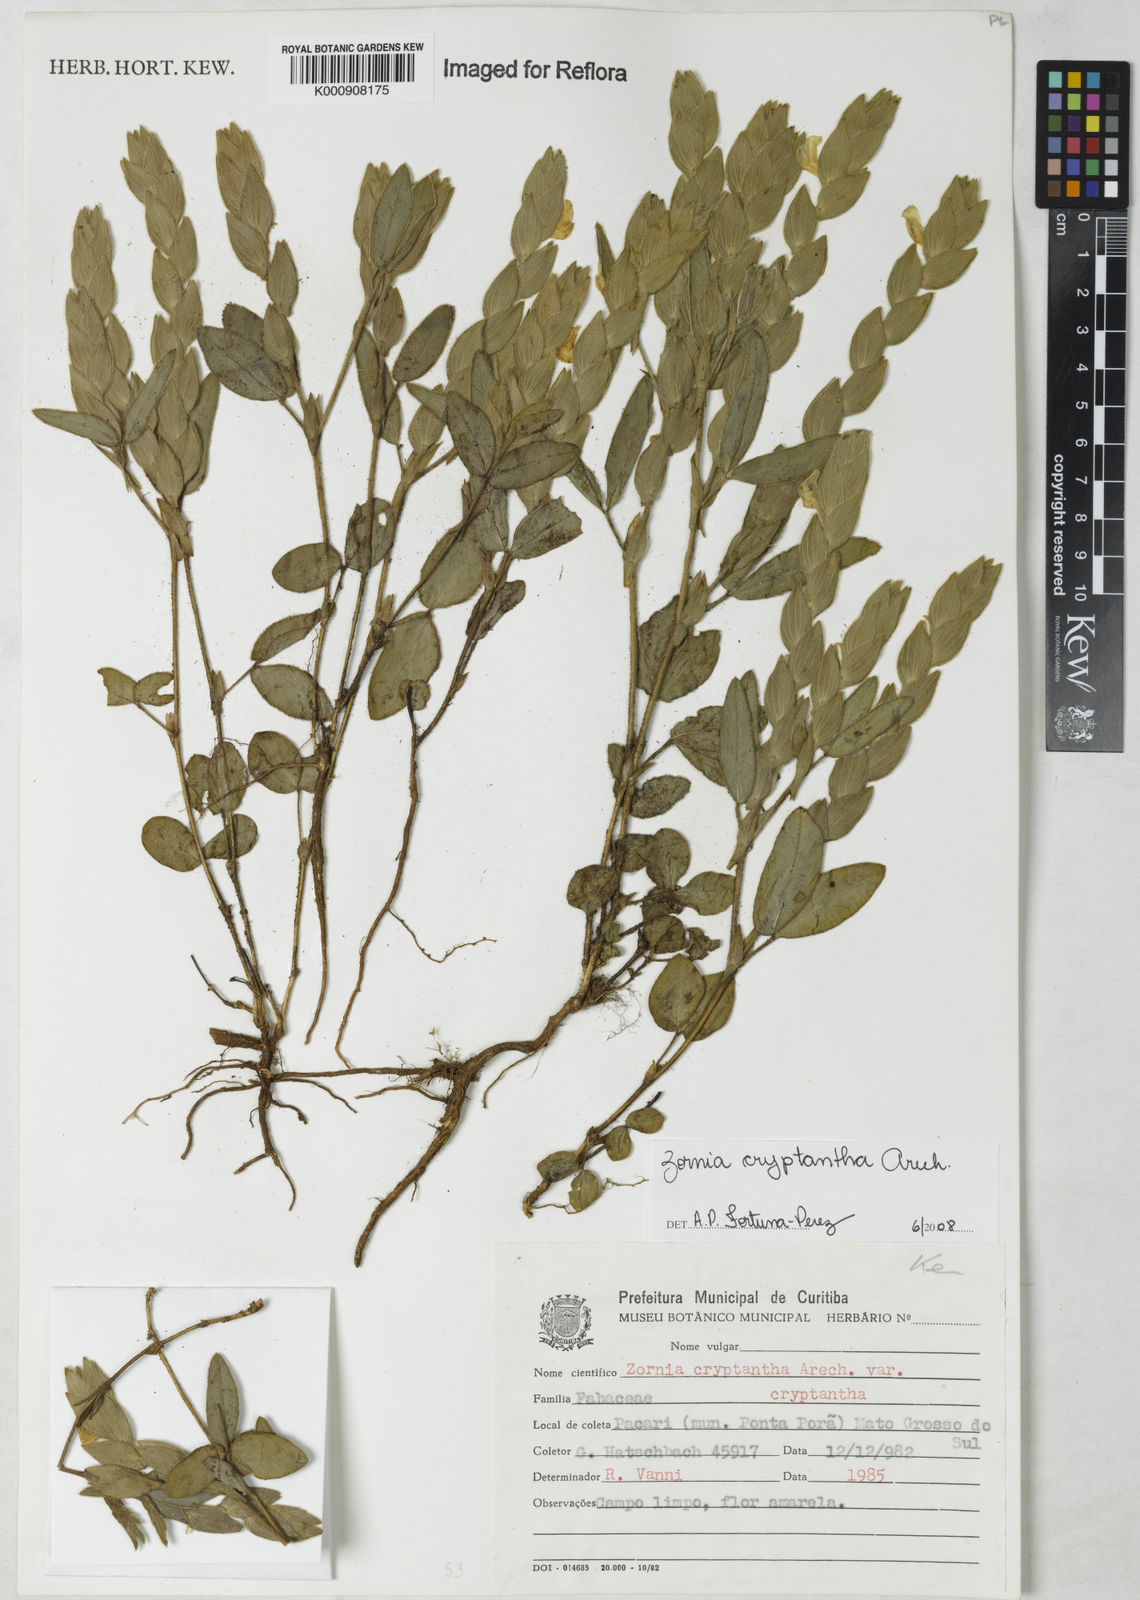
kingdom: Plantae
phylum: Tracheophyta
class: Magnoliopsida
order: Fabales
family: Fabaceae
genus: Zornia
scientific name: Zornia cryptantha
